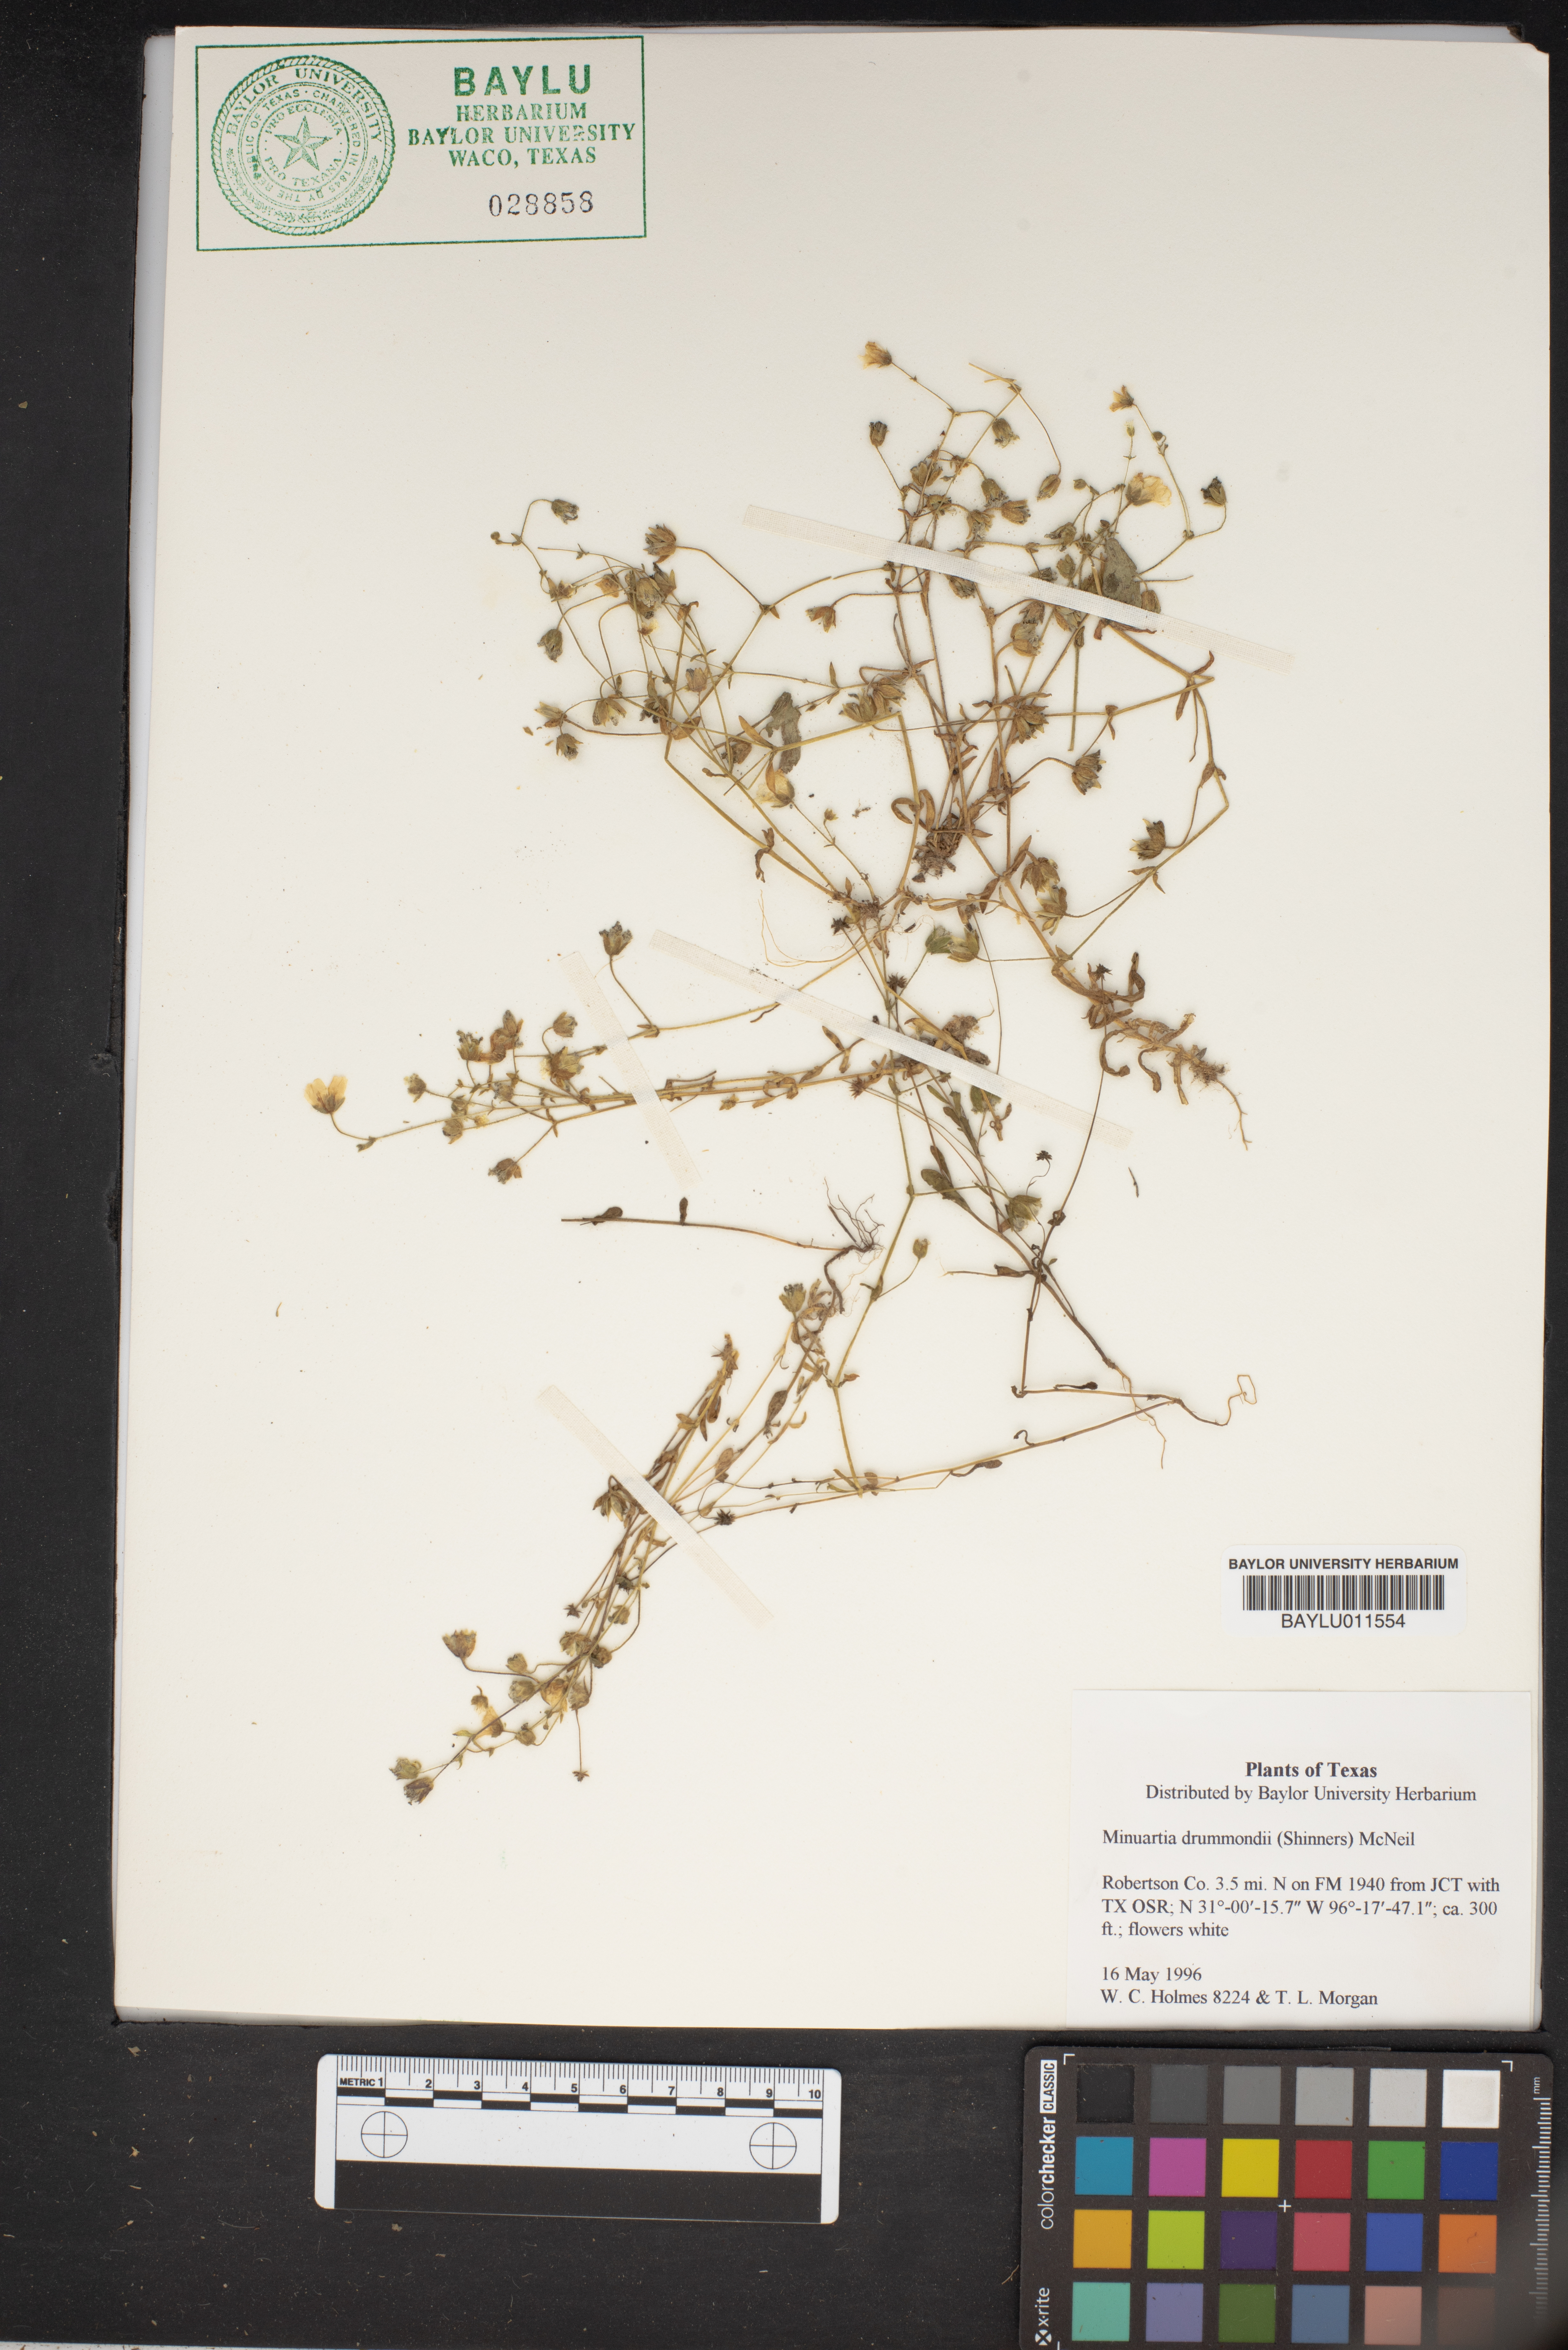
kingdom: Plantae
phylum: Tracheophyta
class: Magnoliopsida
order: Caryophyllales
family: Caryophyllaceae
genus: Geocarpon
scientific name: Geocarpon nuttallii
